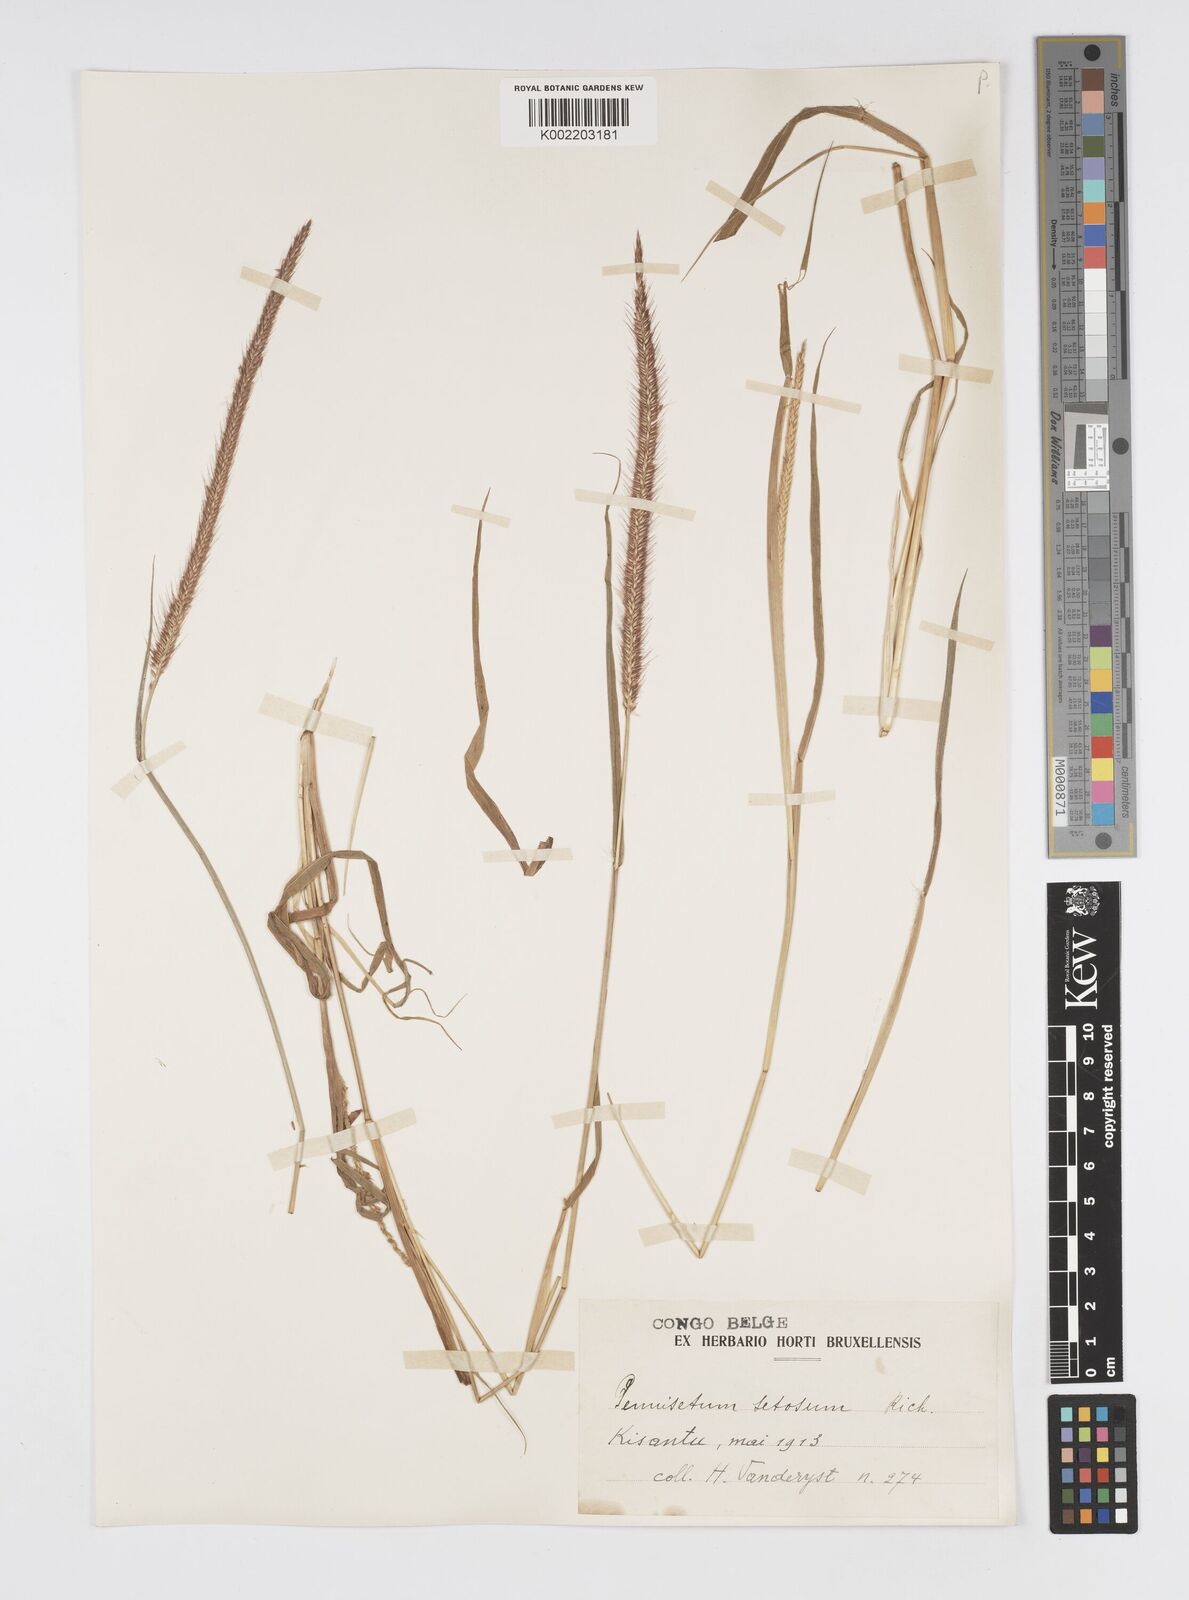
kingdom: Plantae
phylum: Tracheophyta
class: Liliopsida
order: Poales
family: Poaceae
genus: Cenchrus
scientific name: Cenchrus hordeoides
